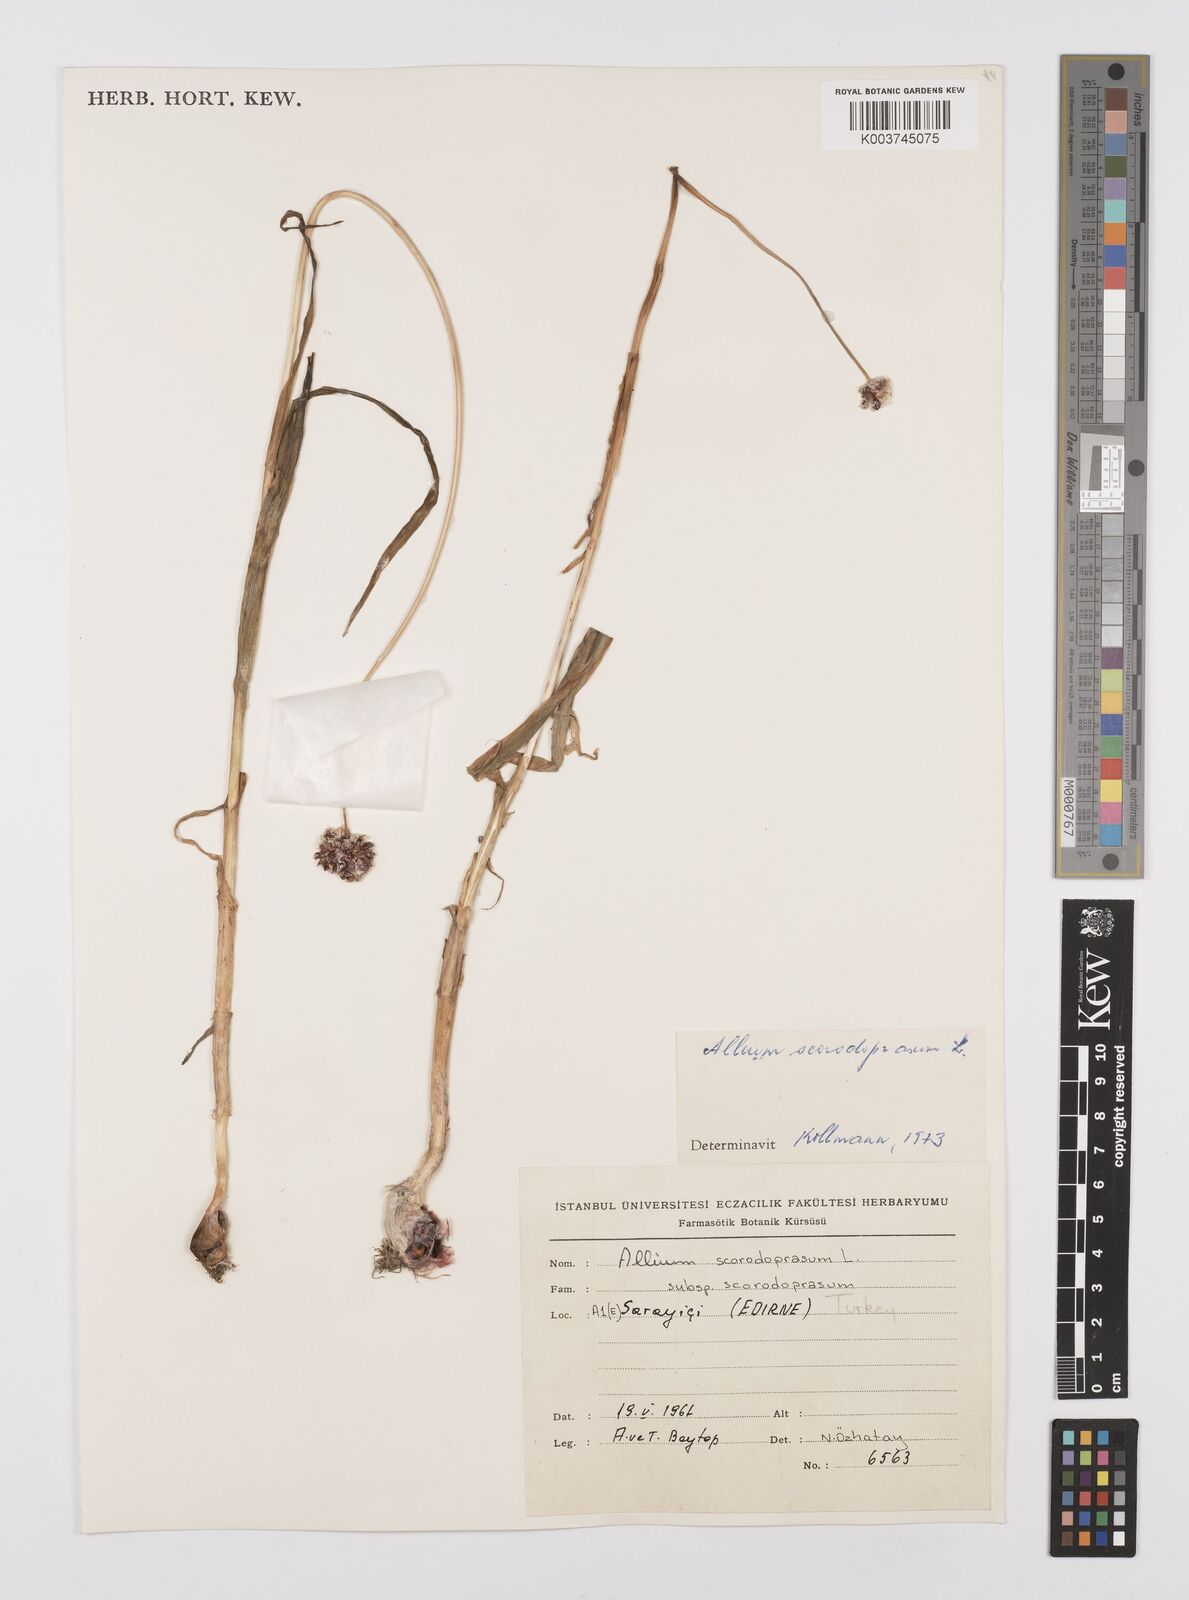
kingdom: Plantae
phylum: Tracheophyta
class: Liliopsida
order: Asparagales
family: Amaryllidaceae
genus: Allium
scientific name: Allium rotundum
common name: Sand leek
